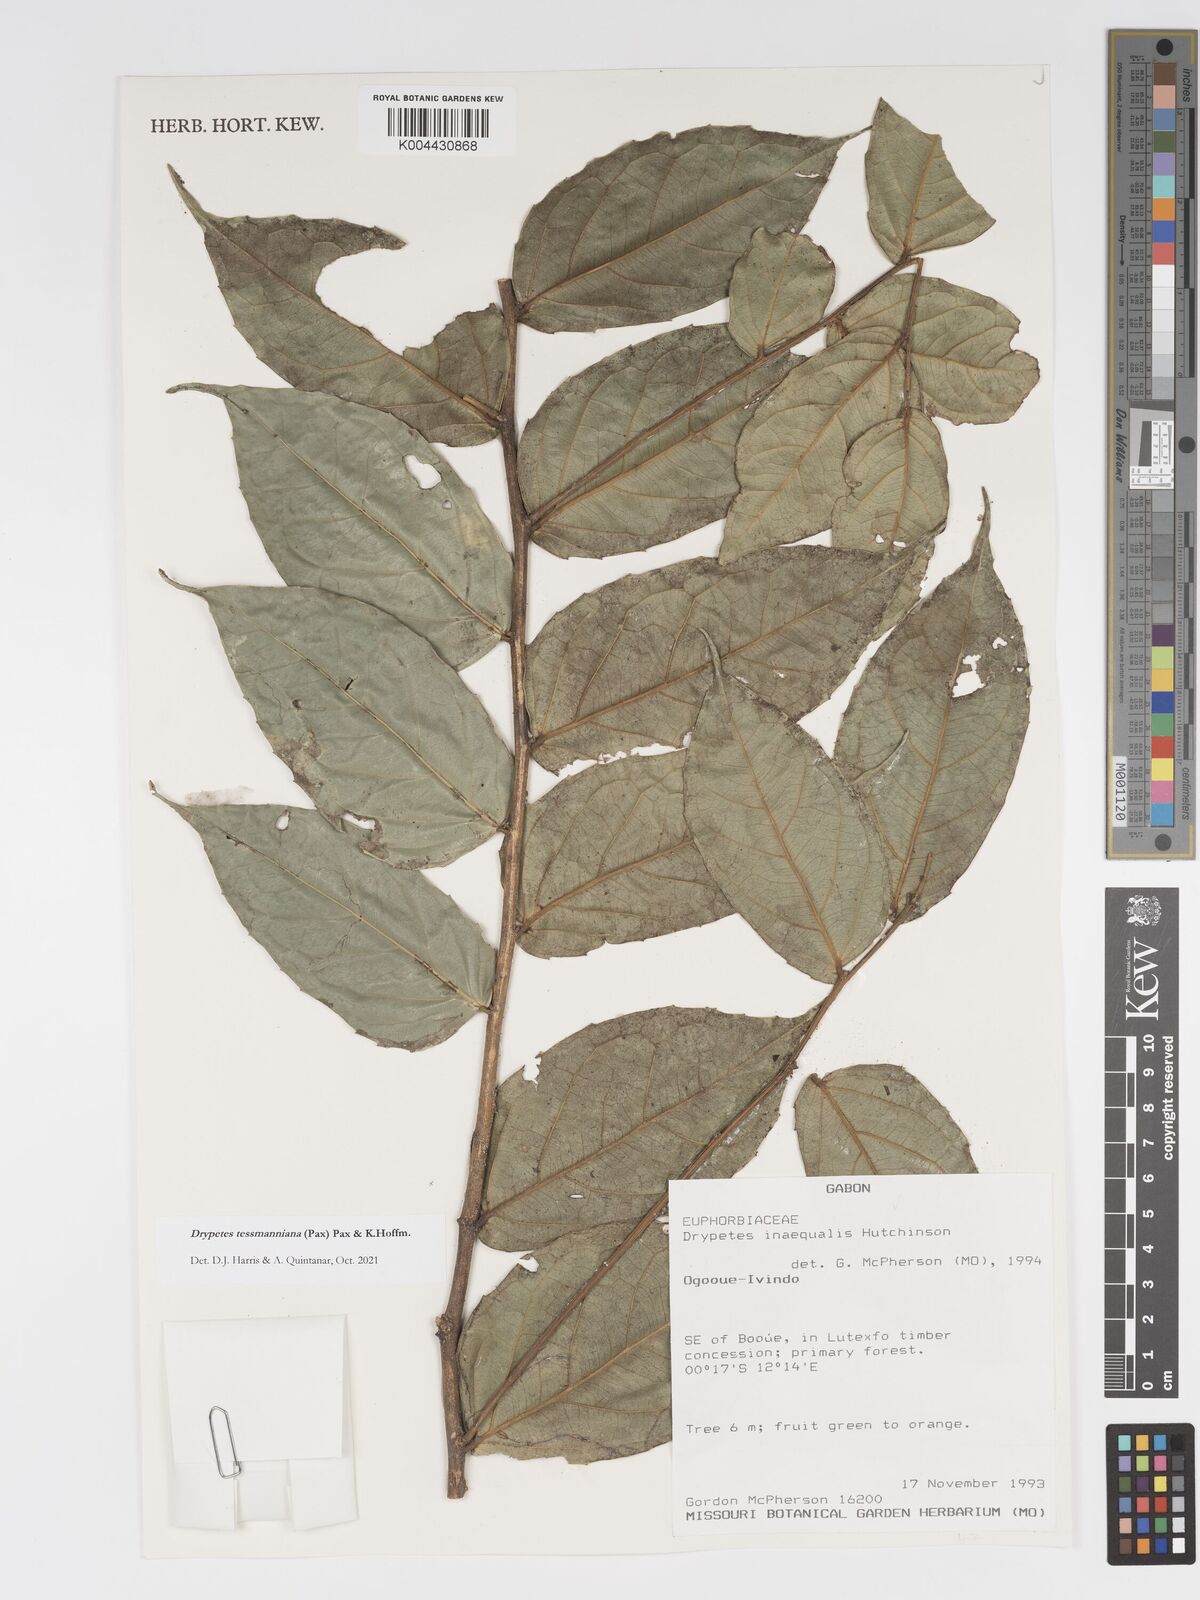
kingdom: Plantae
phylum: Tracheophyta
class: Magnoliopsida
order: Malpighiales
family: Putranjivaceae
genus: Drypetes
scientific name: Drypetes tessmanniana
